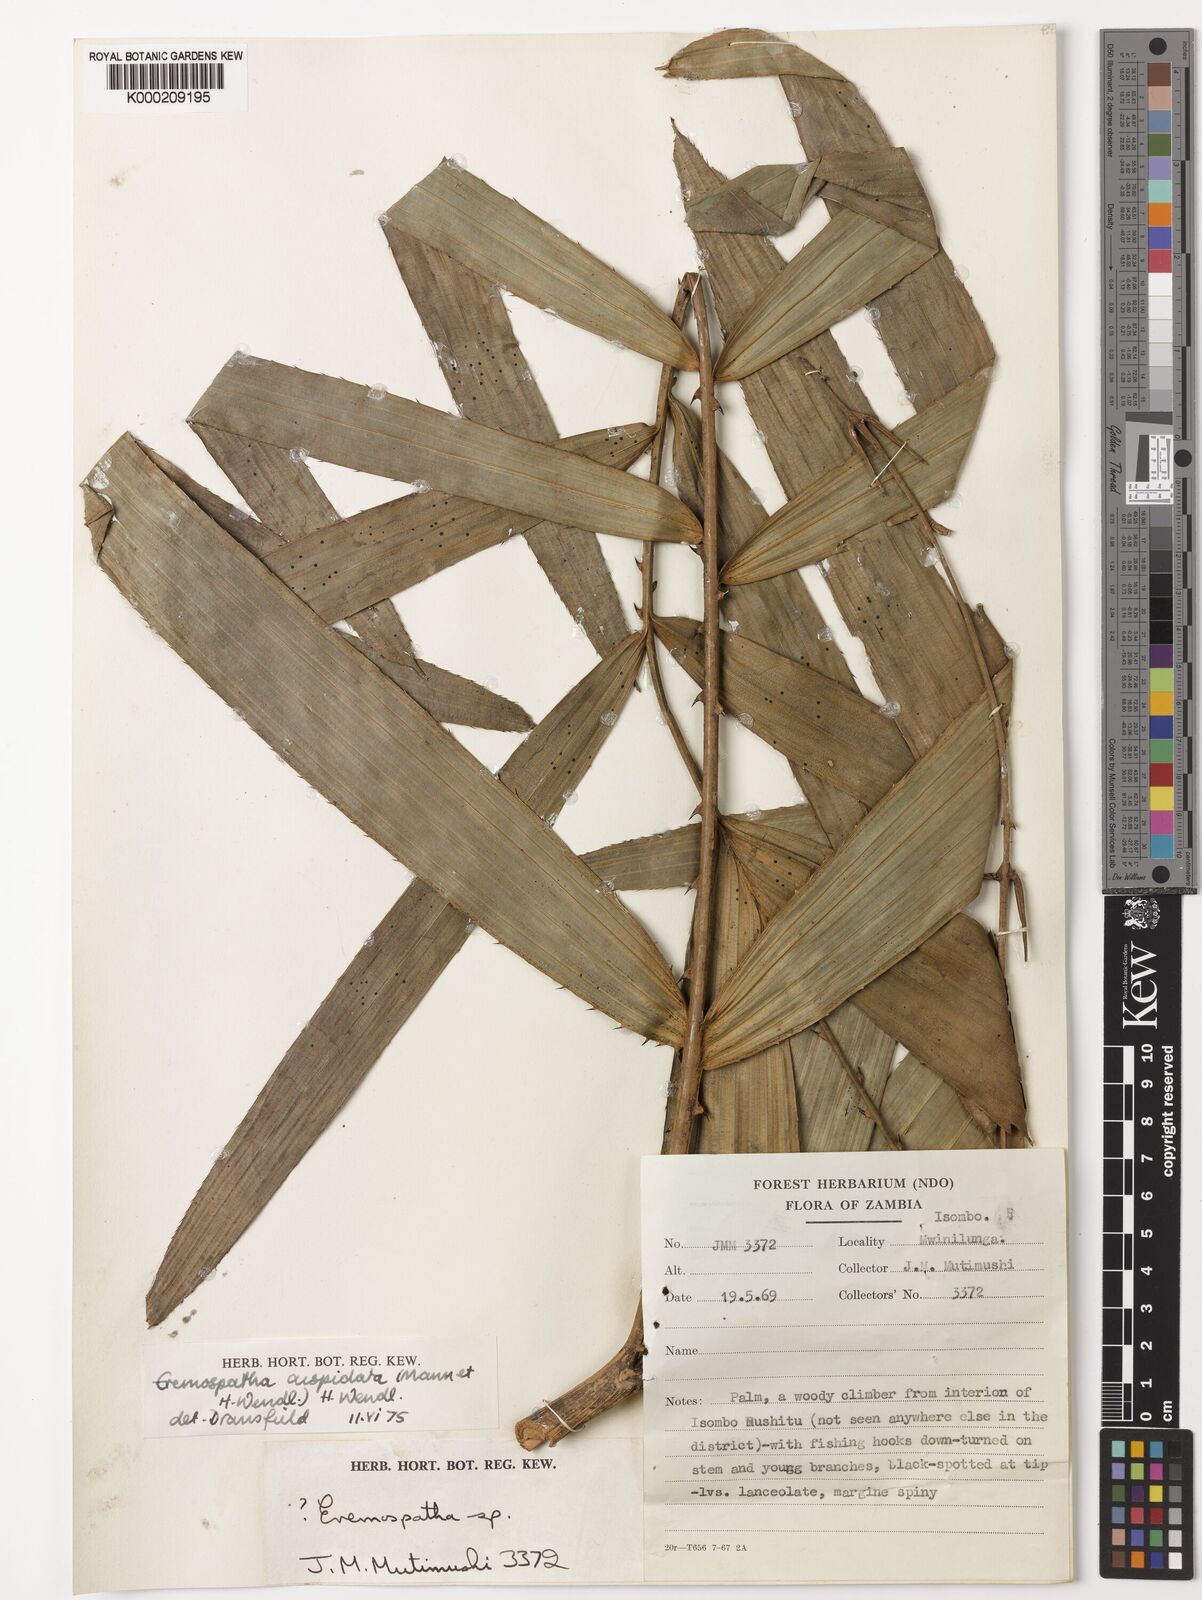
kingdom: Plantae
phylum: Tracheophyta
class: Liliopsida
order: Arecales
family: Arecaceae
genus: Eremospatha
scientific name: Eremospatha cuspidata
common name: Rattan
